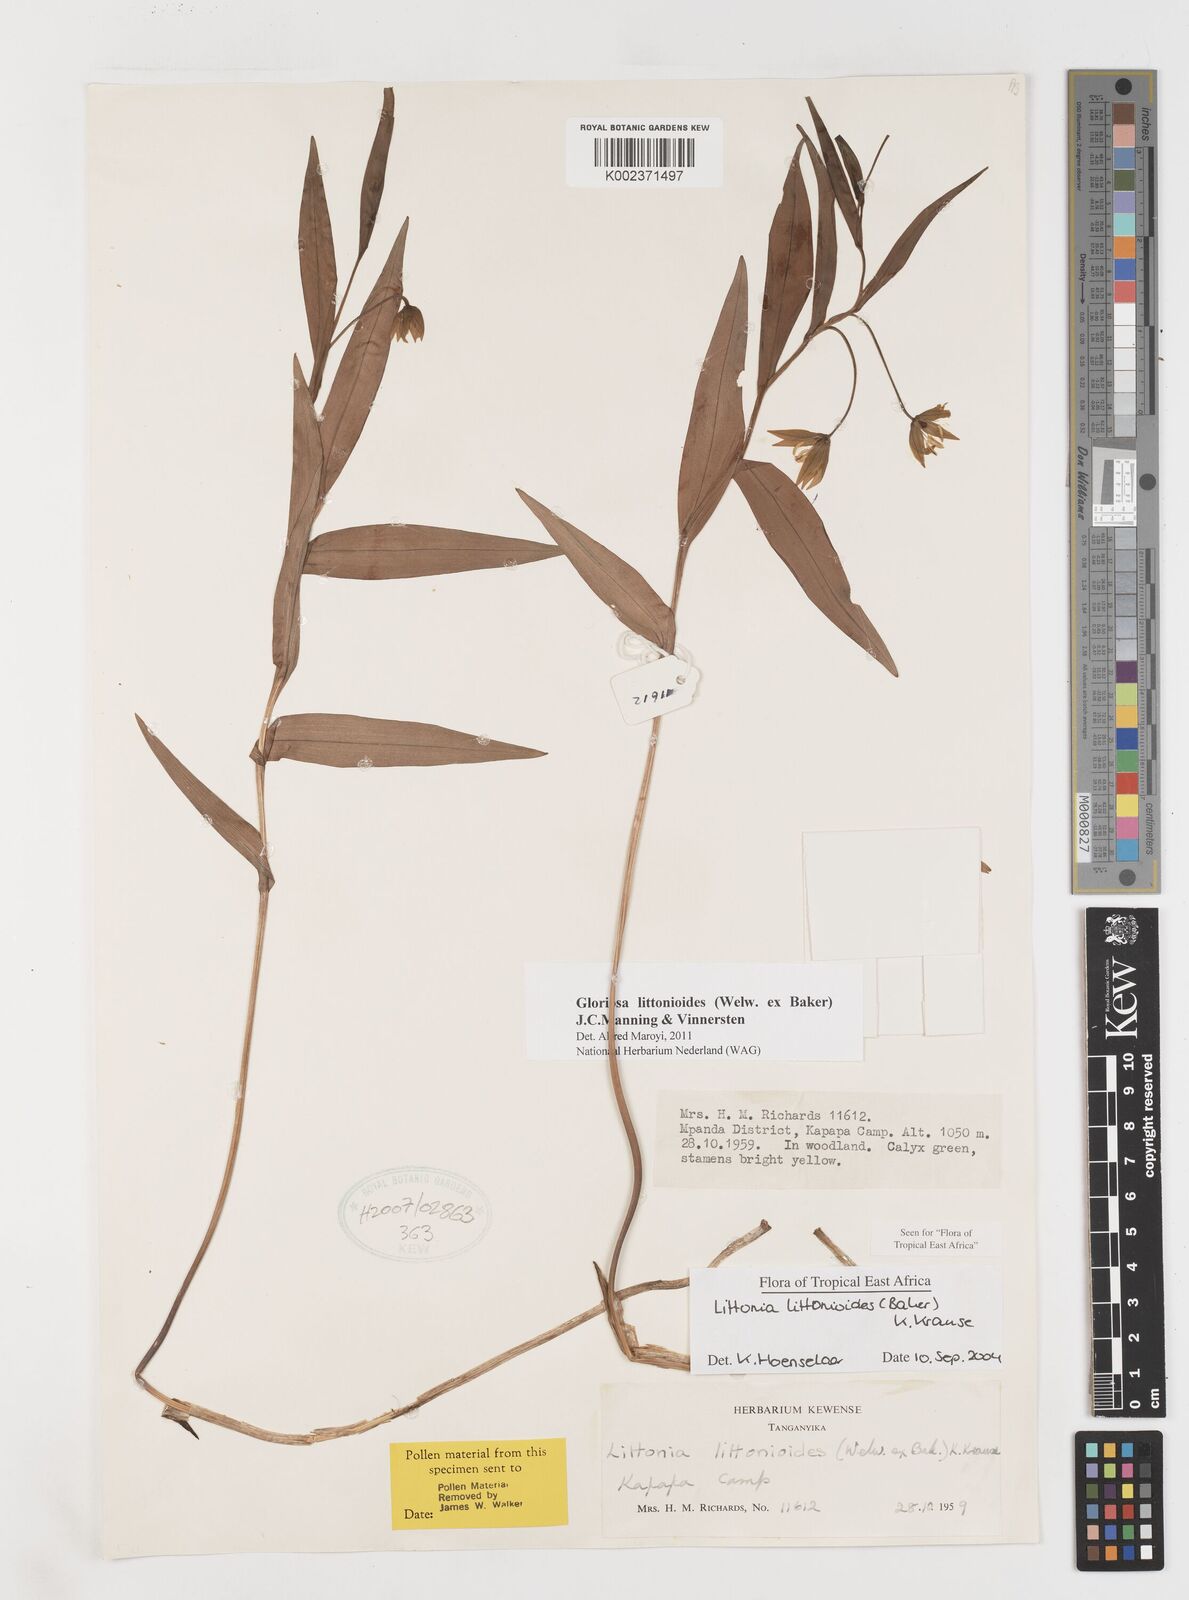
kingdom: Plantae
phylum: Tracheophyta
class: Liliopsida
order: Liliales
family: Colchicaceae
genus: Gloriosa
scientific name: Gloriosa lindenii
